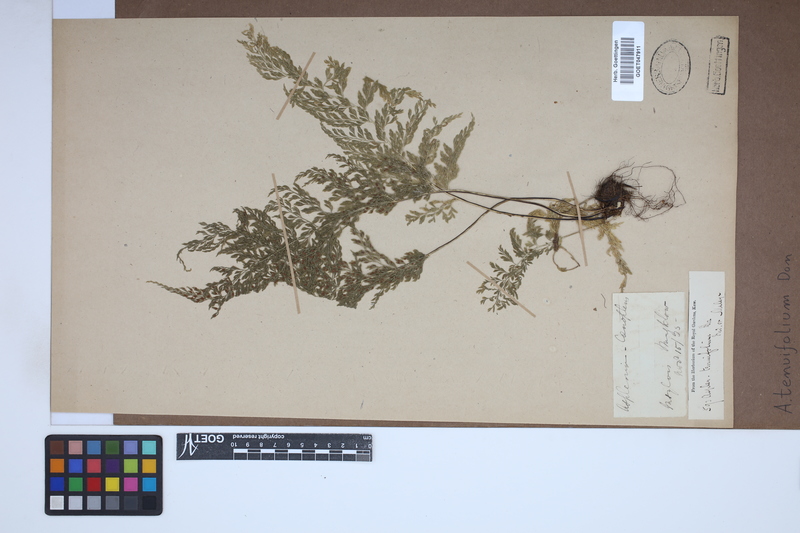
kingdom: Plantae
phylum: Tracheophyta
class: Polypodiopsida
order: Polypodiales
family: Aspleniaceae
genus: Asplenium
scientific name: Asplenium tenuifolium
